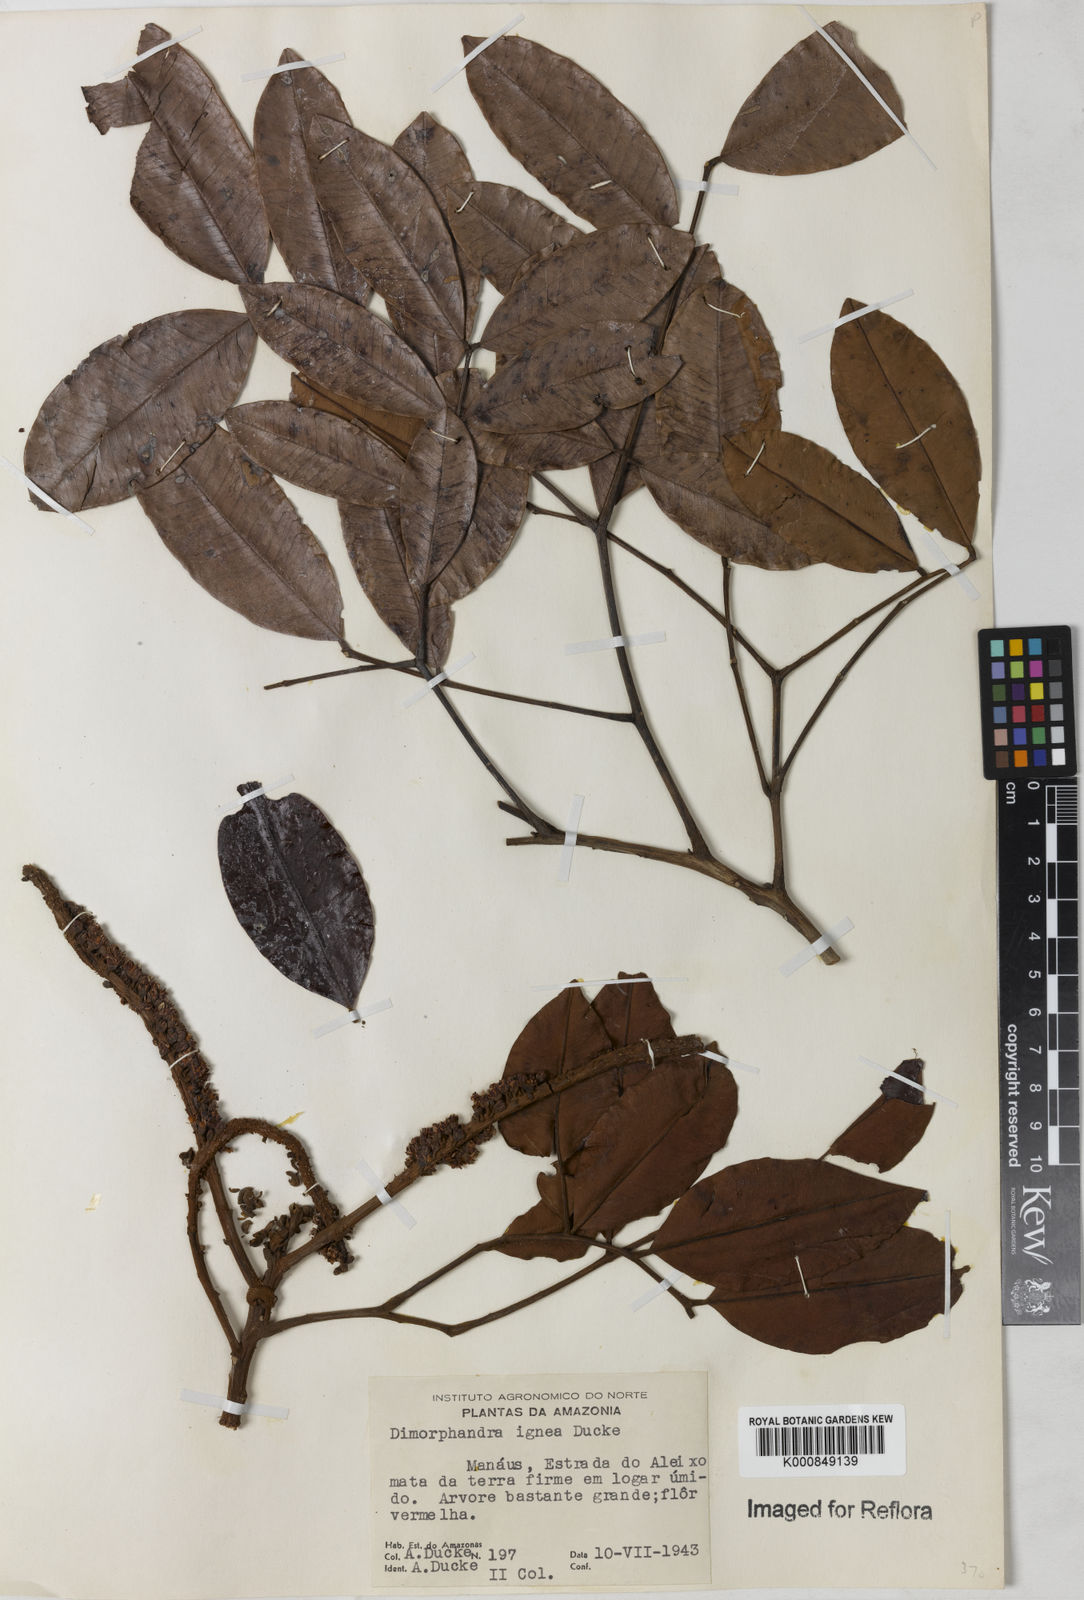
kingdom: Plantae
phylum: Tracheophyta
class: Magnoliopsida
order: Fabales
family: Fabaceae
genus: Dimorphandra
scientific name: Dimorphandra ignea
